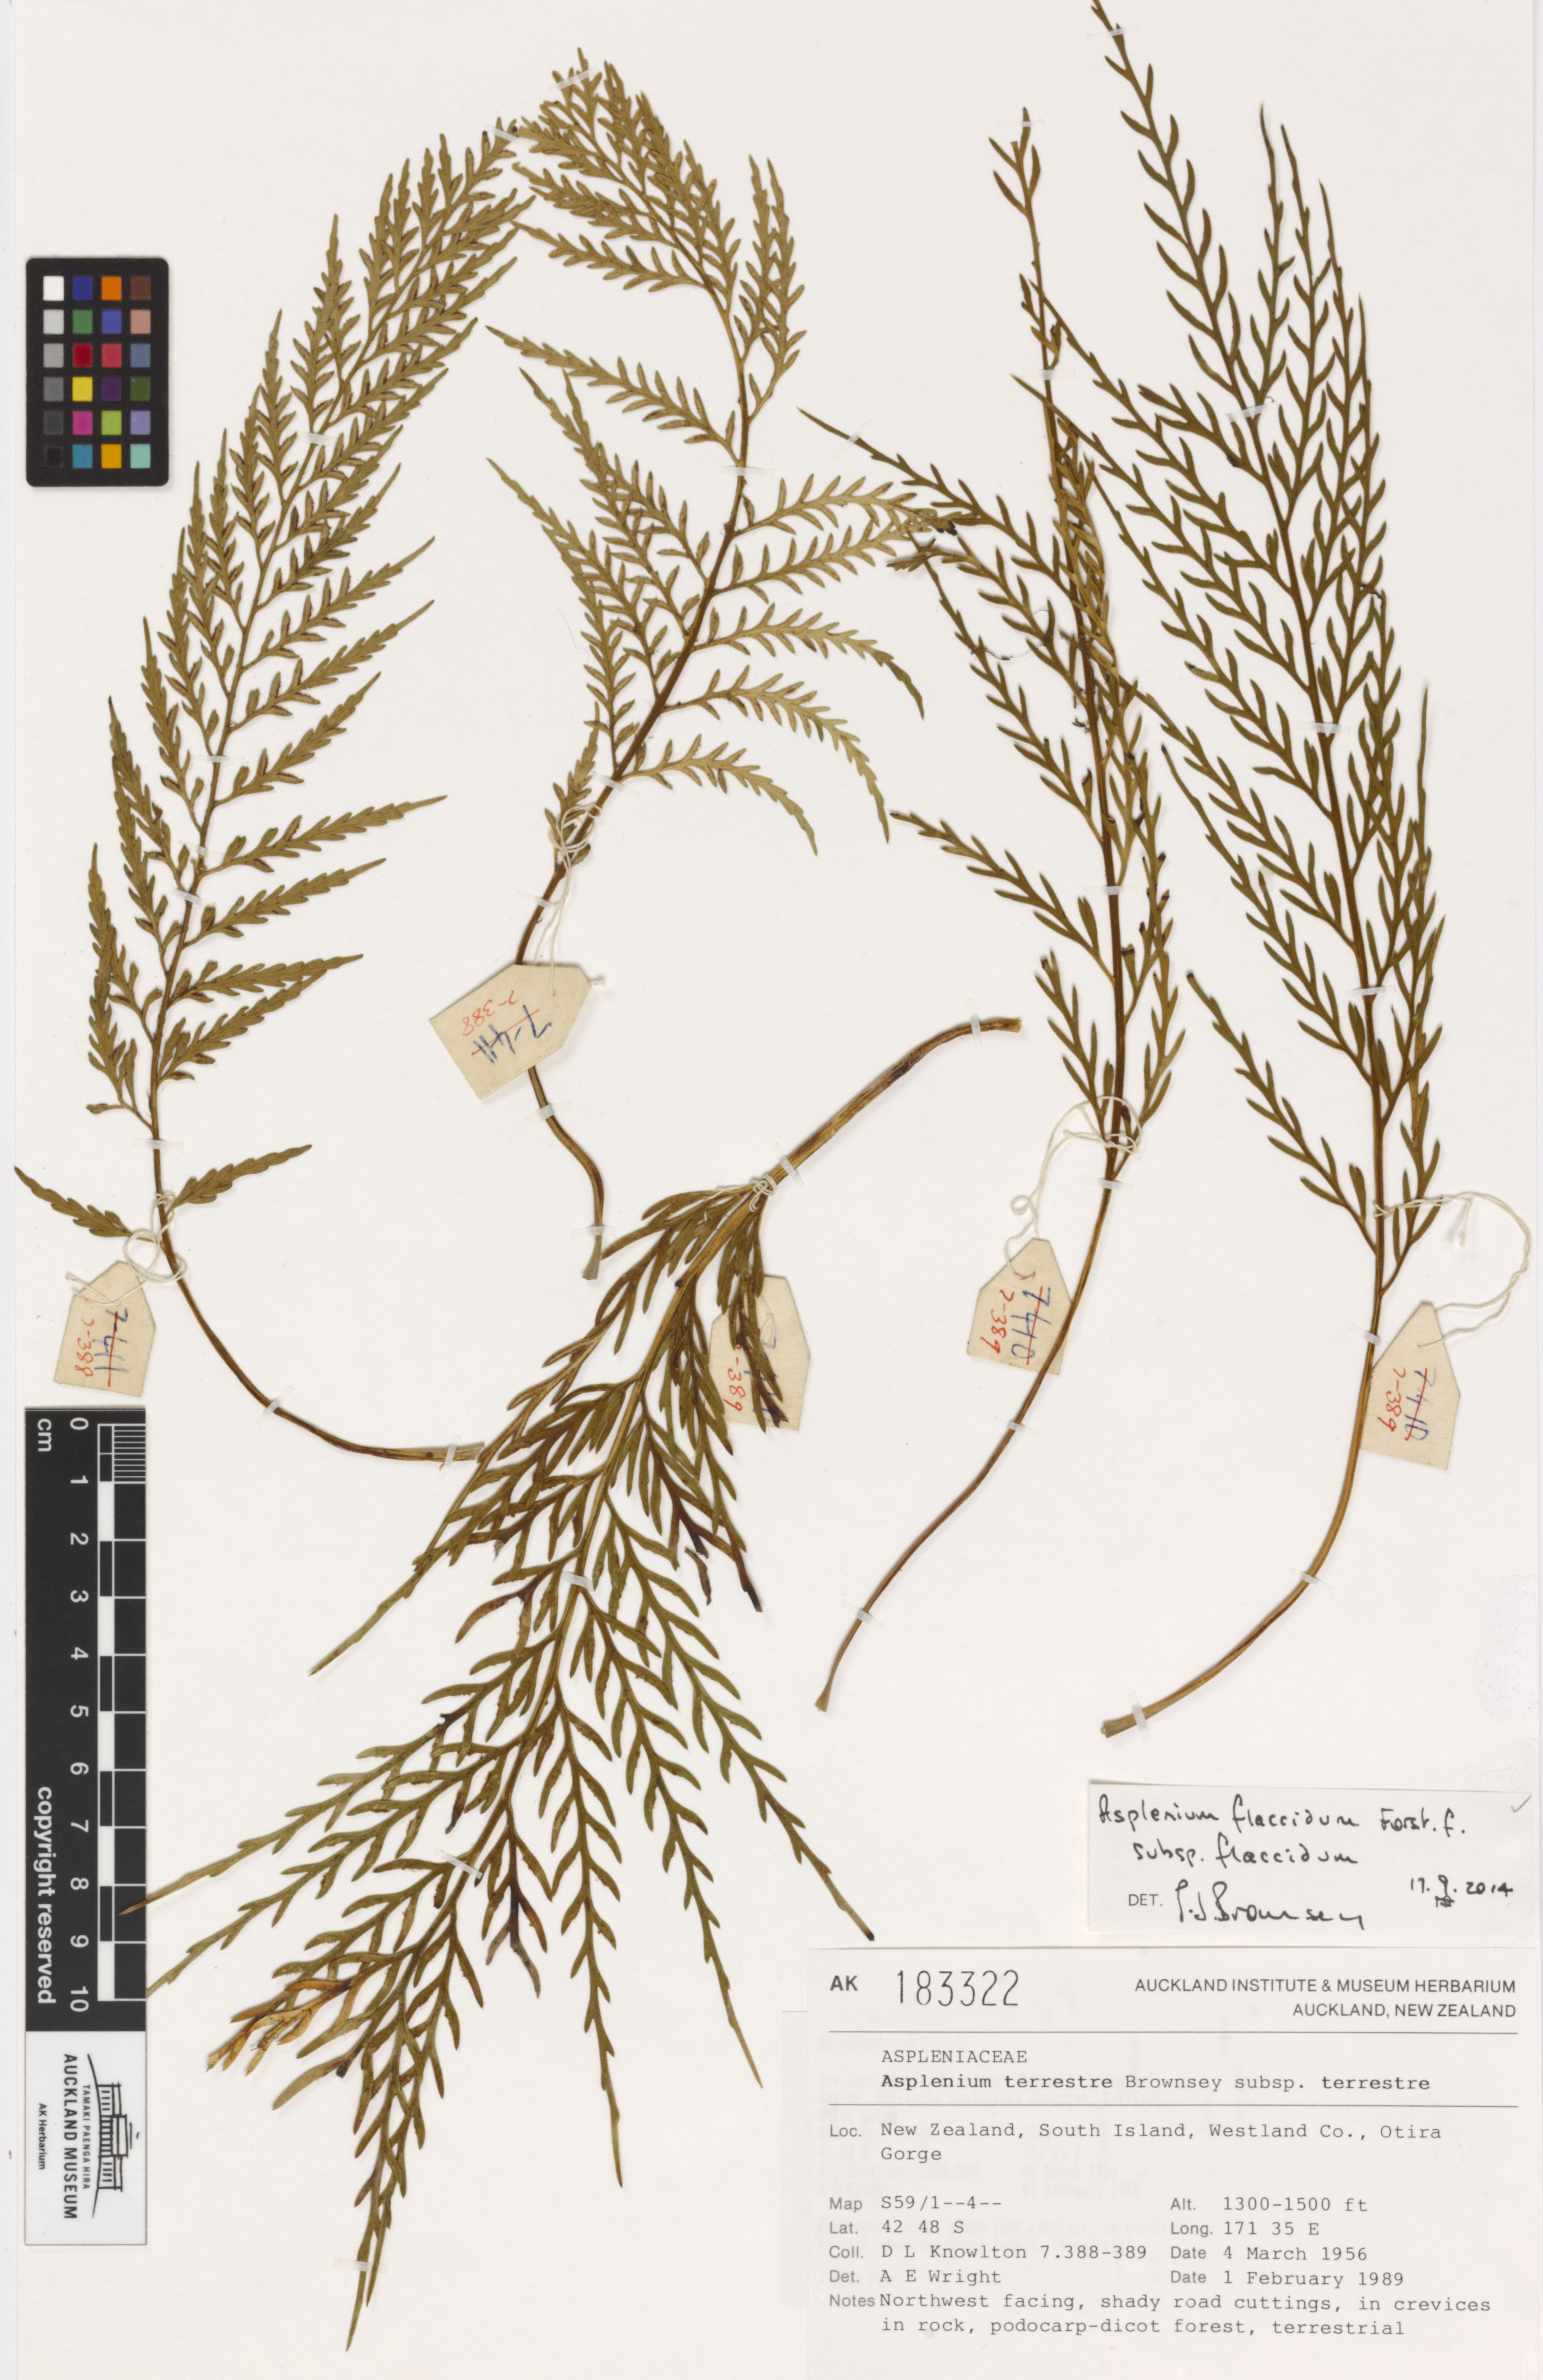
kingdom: Plantae
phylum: Tracheophyta
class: Polypodiopsida
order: Polypodiales
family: Aspleniaceae
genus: Asplenium
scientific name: Asplenium flaccidum
